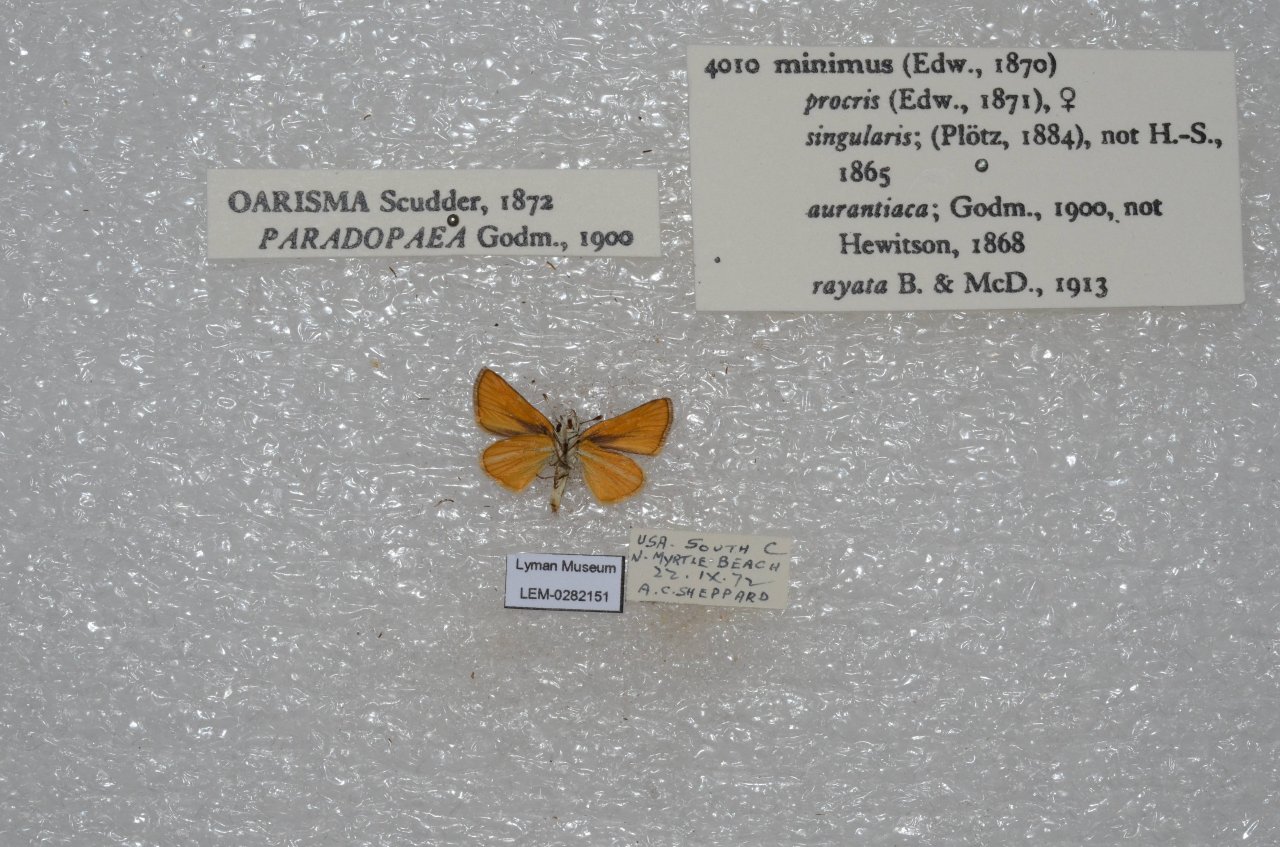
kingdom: Animalia
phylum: Arthropoda
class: Insecta
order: Lepidoptera
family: Hesperiidae
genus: Copaeodes
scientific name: Copaeodes minima
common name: Southern Skipperling
